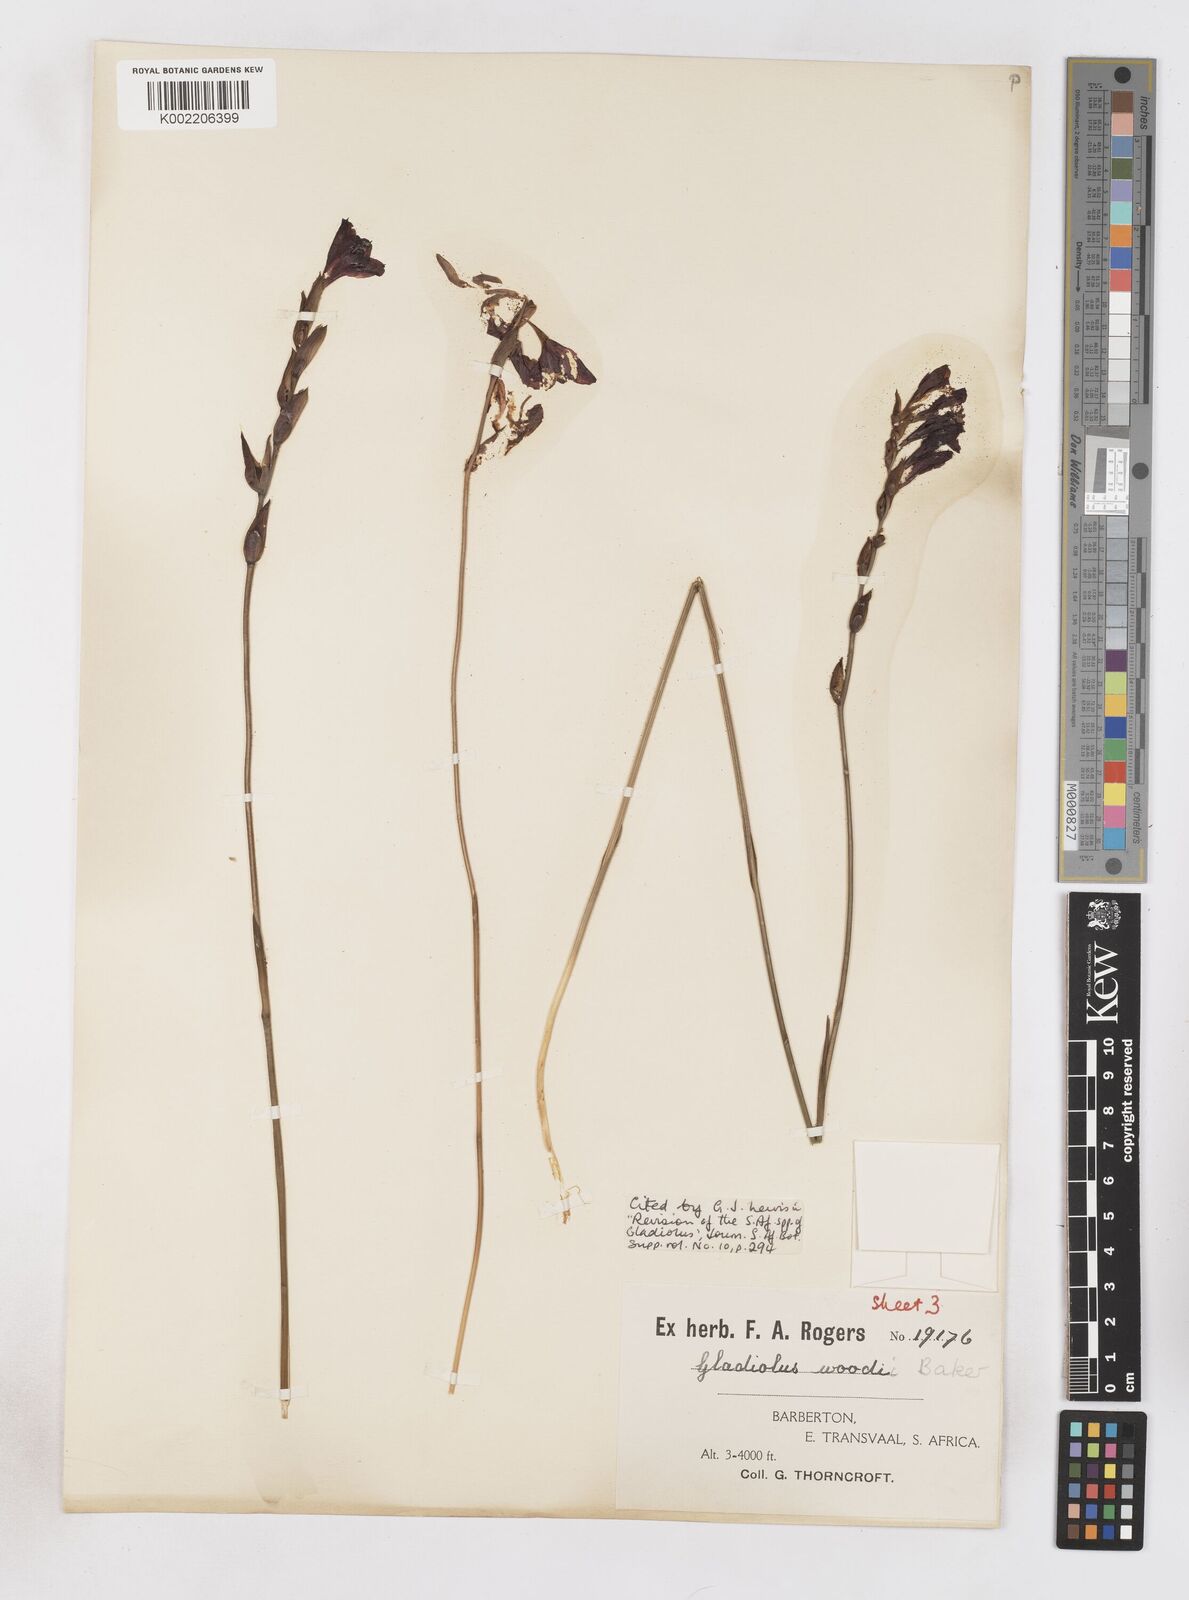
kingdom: Plantae
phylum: Tracheophyta
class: Liliopsida
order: Asparagales
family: Iridaceae
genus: Gladiolus
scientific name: Gladiolus woodii
